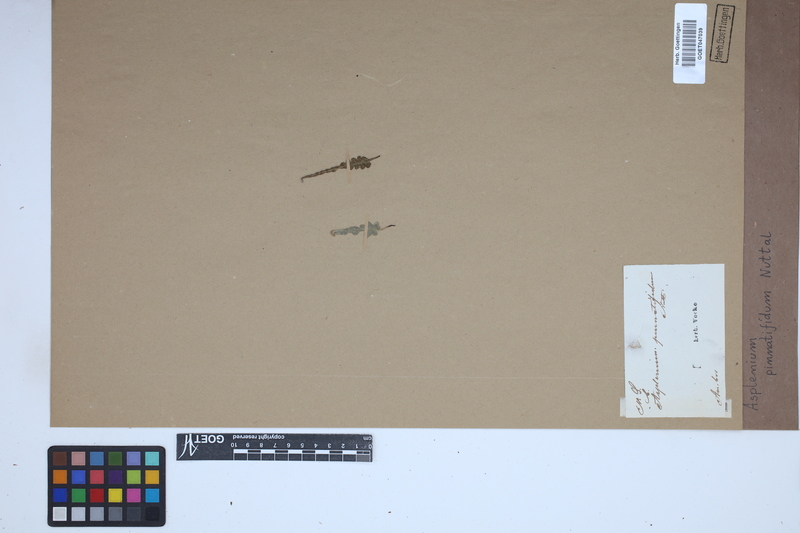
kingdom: Plantae
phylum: Tracheophyta
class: Polypodiopsida
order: Polypodiales
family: Aspleniaceae
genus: Asplenium
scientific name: Asplenium pinnatifidum
